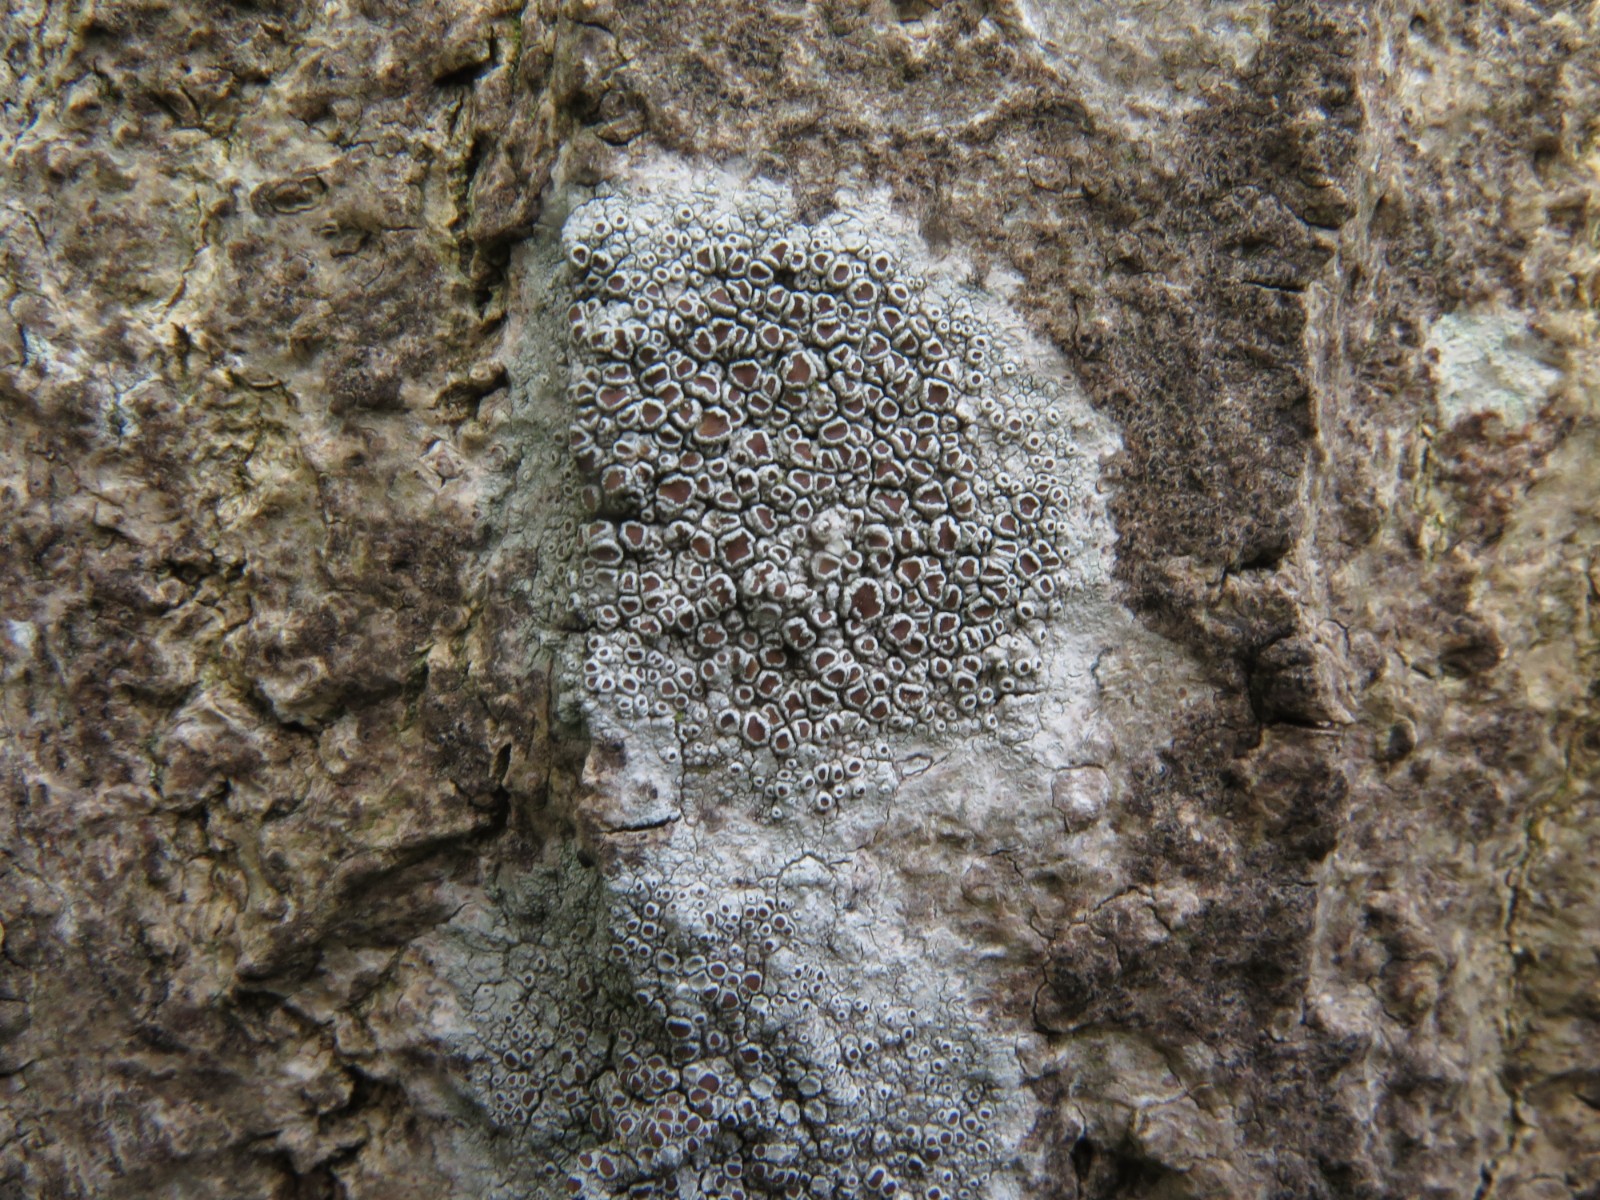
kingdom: Fungi
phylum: Ascomycota
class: Lecanoromycetes
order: Lecanorales
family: Lecanoraceae
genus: Lecanora
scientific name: Lecanora chlarotera
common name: brun kantskivelav
